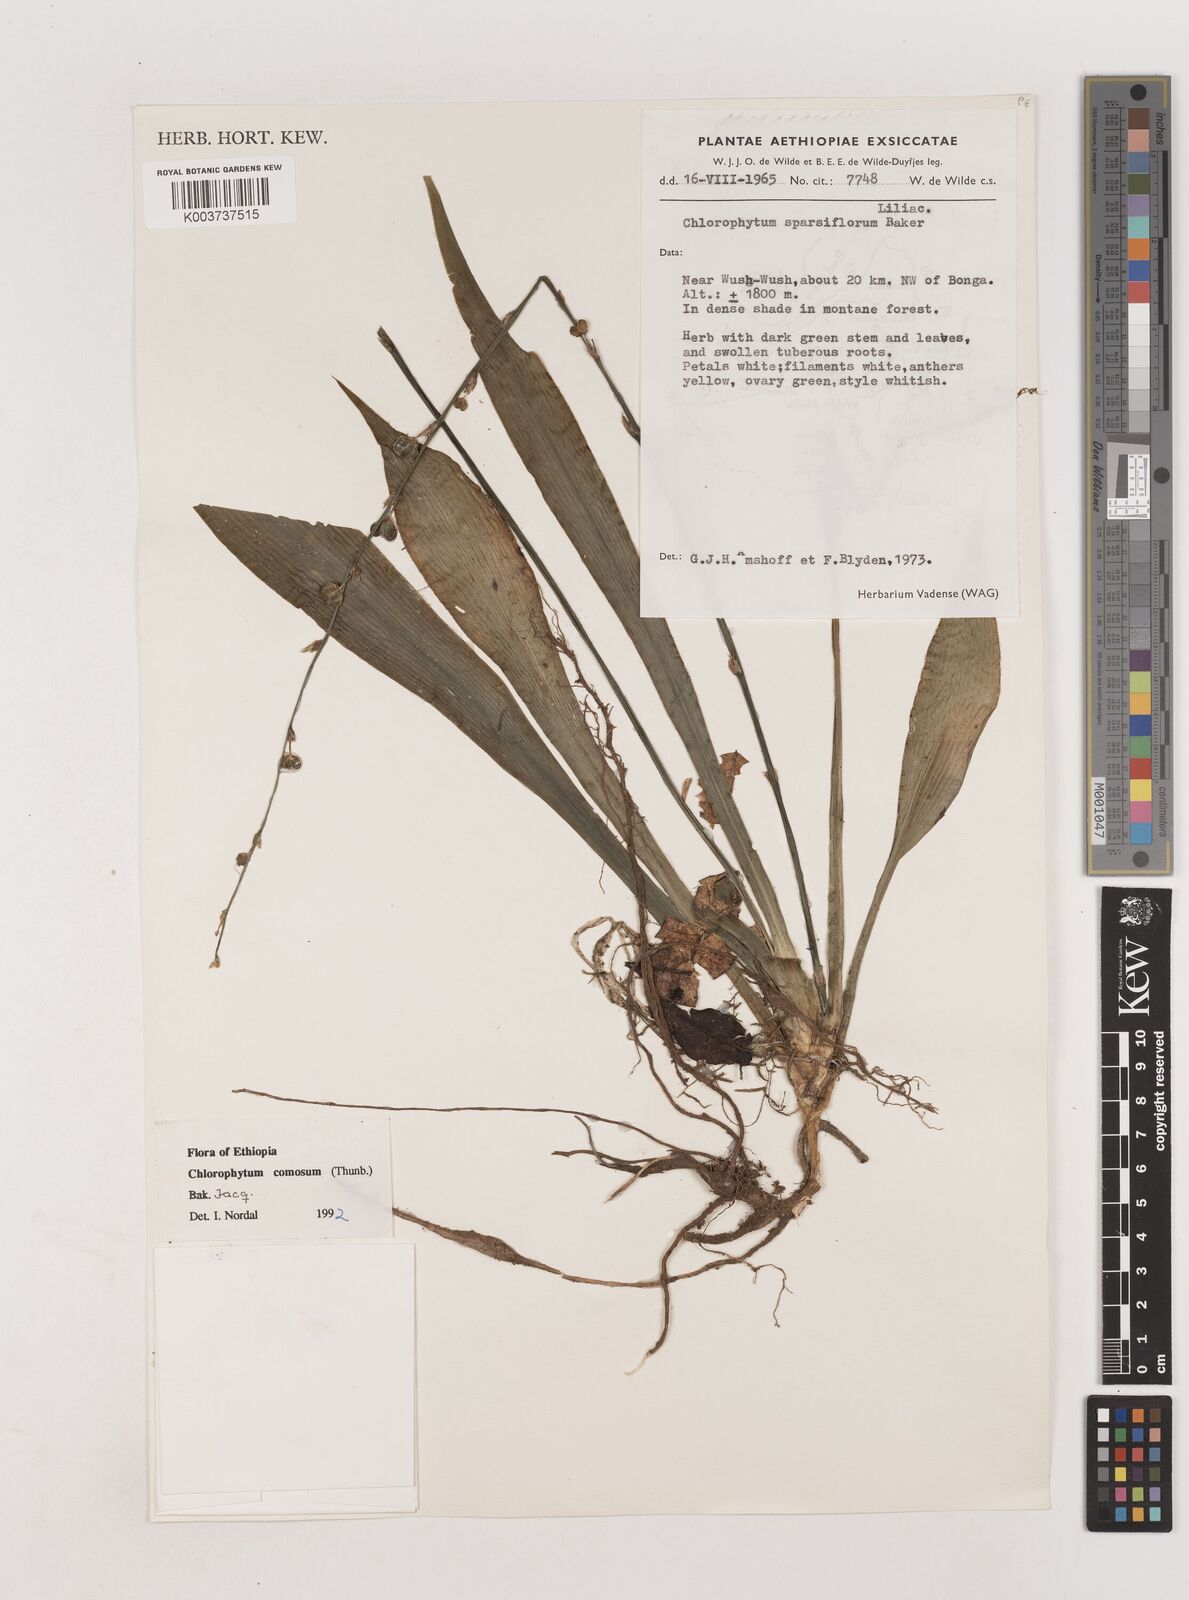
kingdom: Plantae
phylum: Tracheophyta
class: Liliopsida
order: Asparagales
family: Asparagaceae
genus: Chlorophytum
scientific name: Chlorophytum comosum
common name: Spider plant
